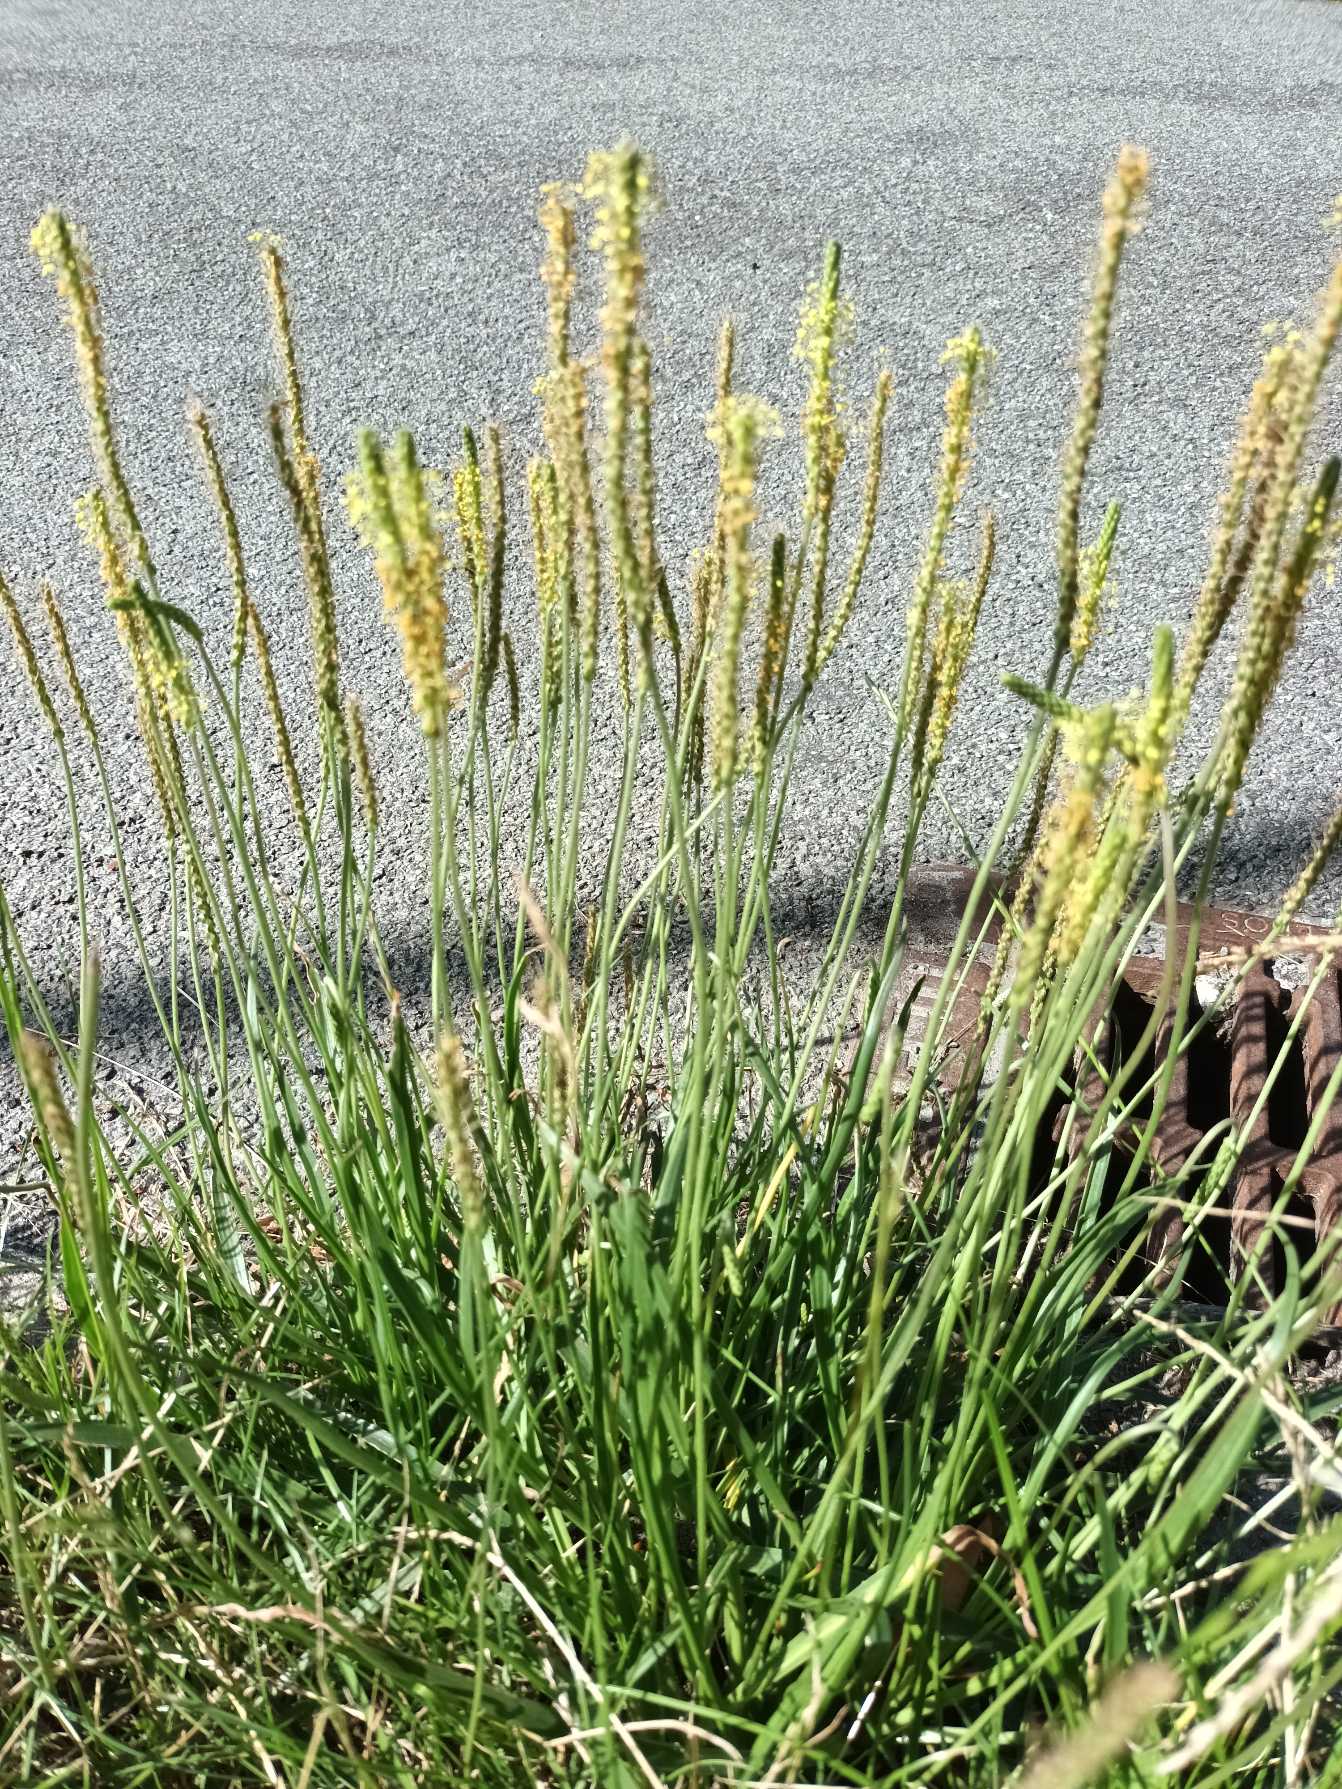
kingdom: Plantae
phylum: Tracheophyta
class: Magnoliopsida
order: Lamiales
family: Plantaginaceae
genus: Plantago
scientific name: Plantago maritima
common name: Strand-vejbred
